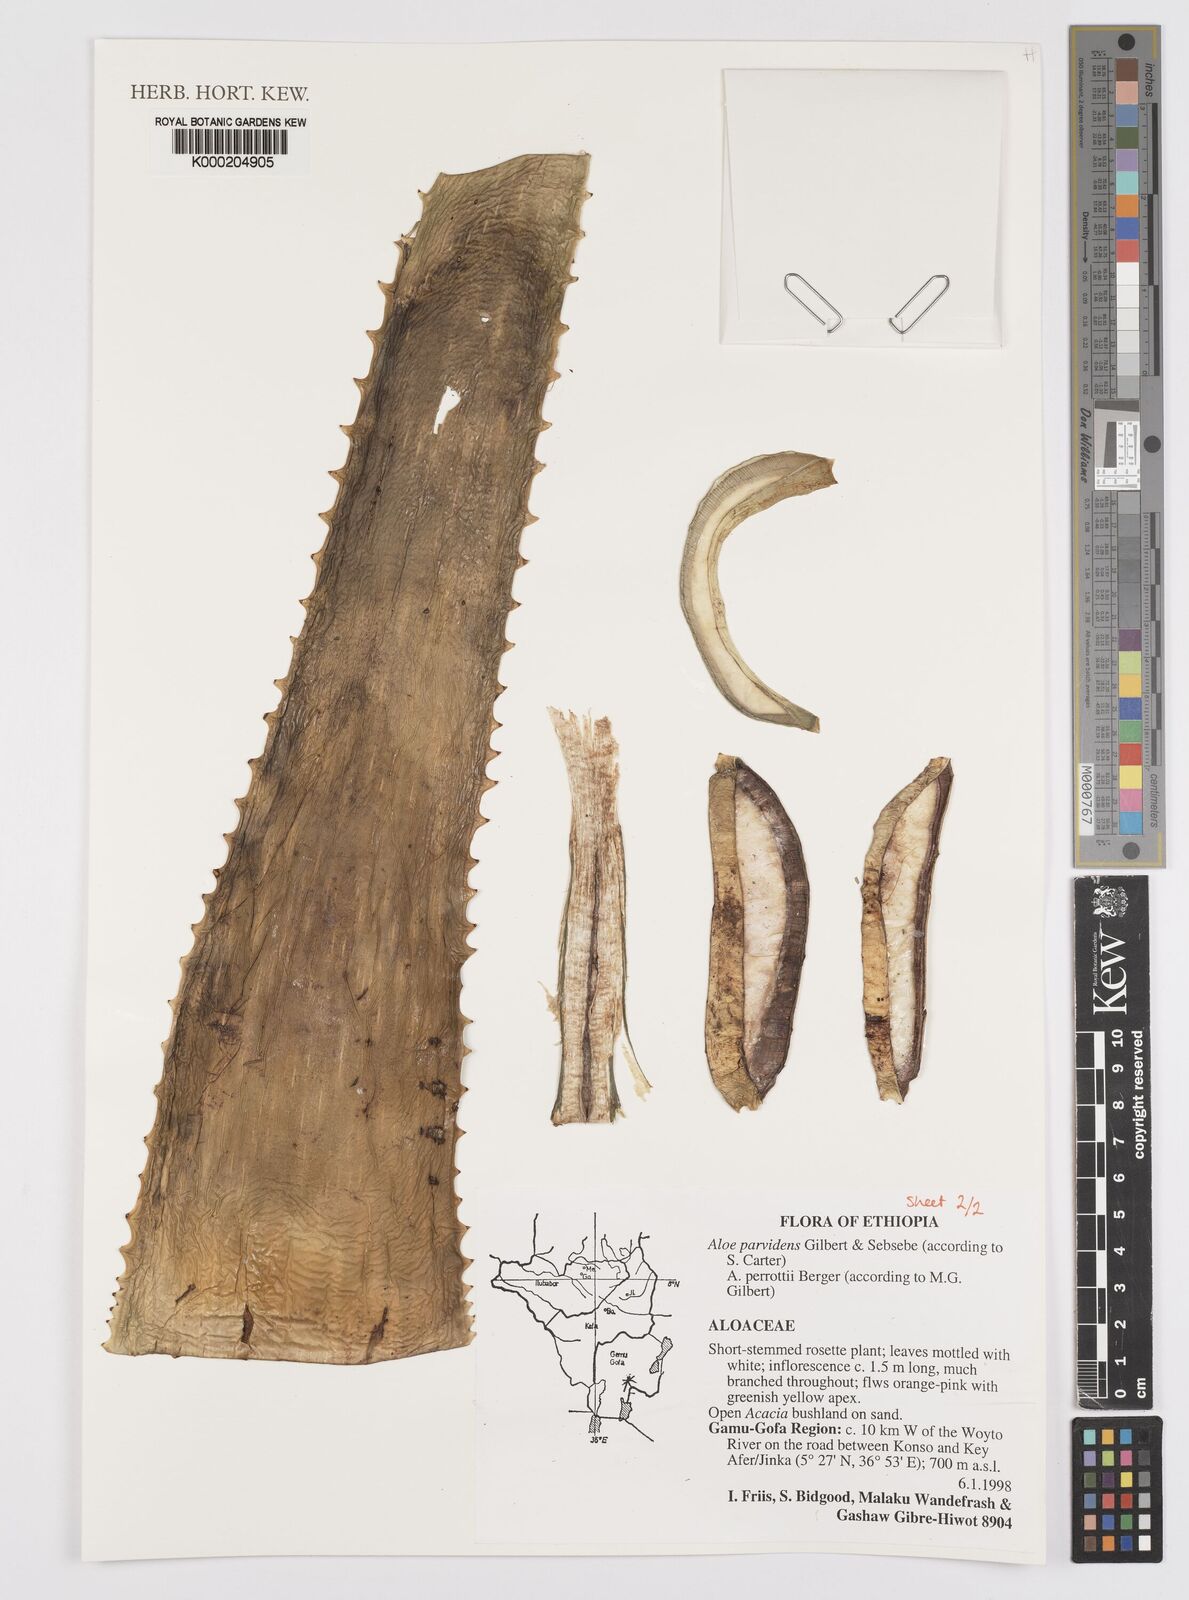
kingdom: Plantae
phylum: Tracheophyta
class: Liliopsida
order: Asparagales
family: Asphodelaceae
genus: Aloe
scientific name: Aloe pirottae
